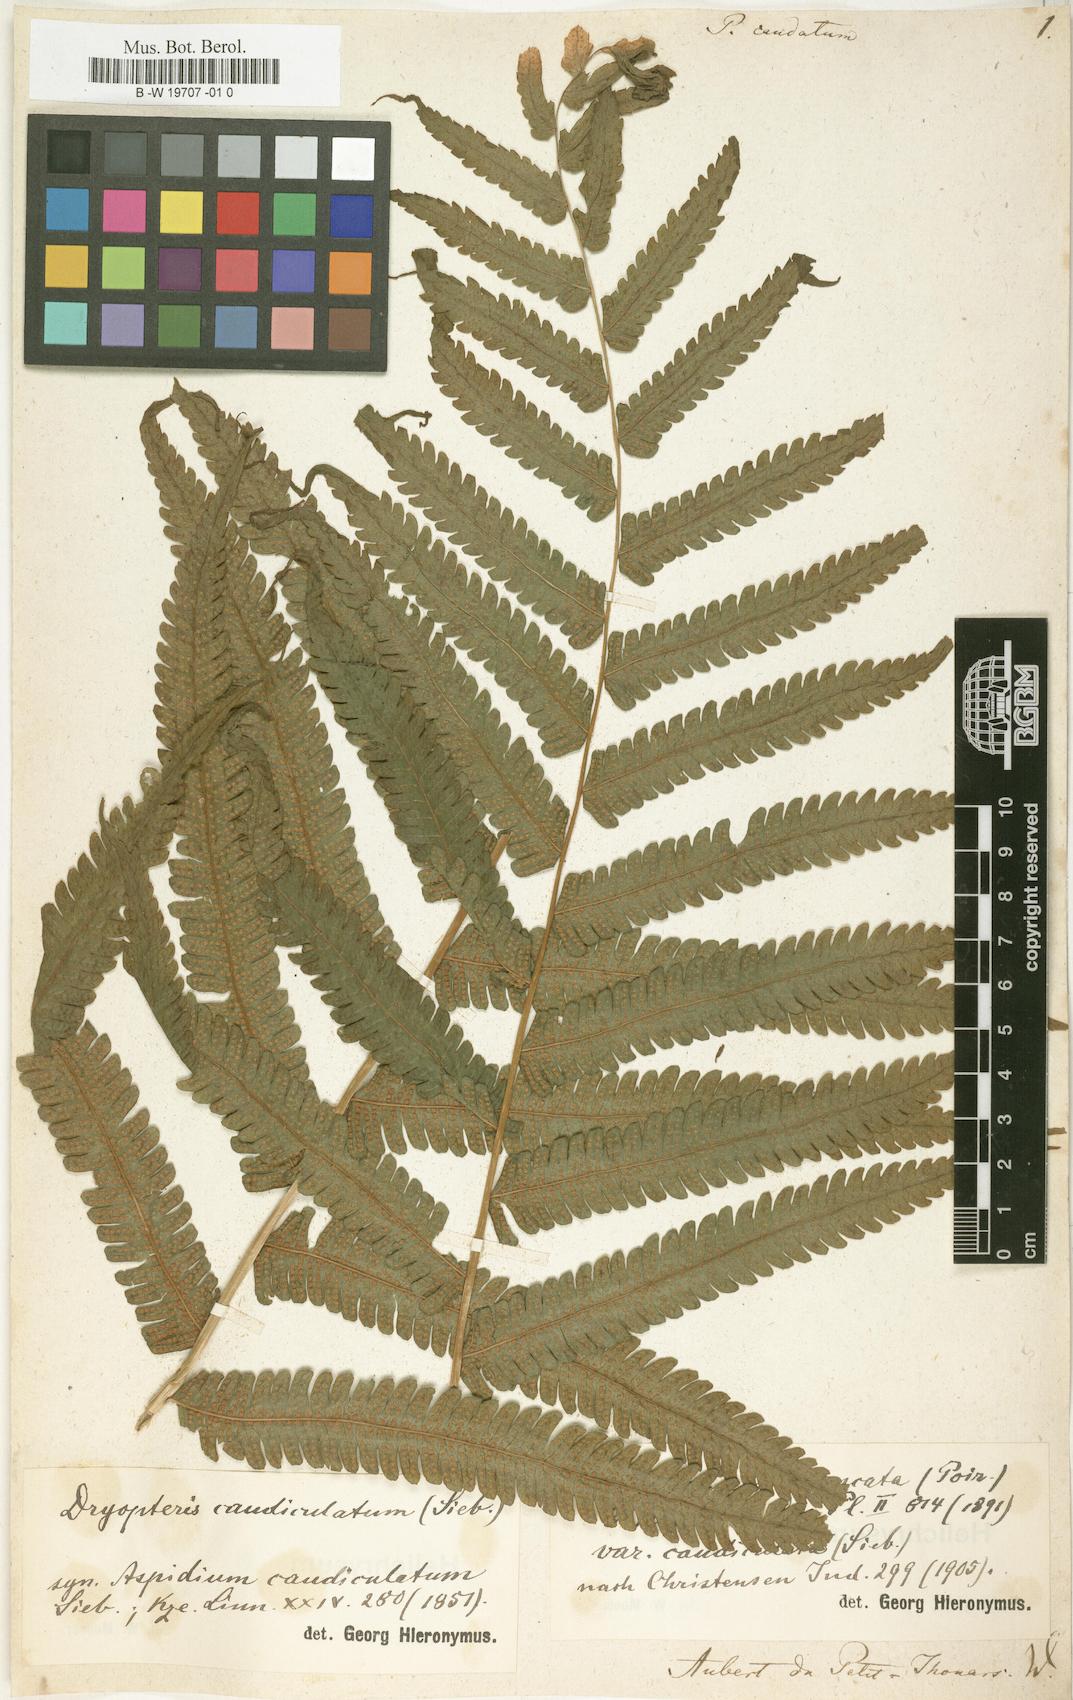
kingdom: Plantae
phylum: Tracheophyta
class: Polypodiopsida
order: Polypodiales
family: Polypodiaceae
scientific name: Polypodiaceae
